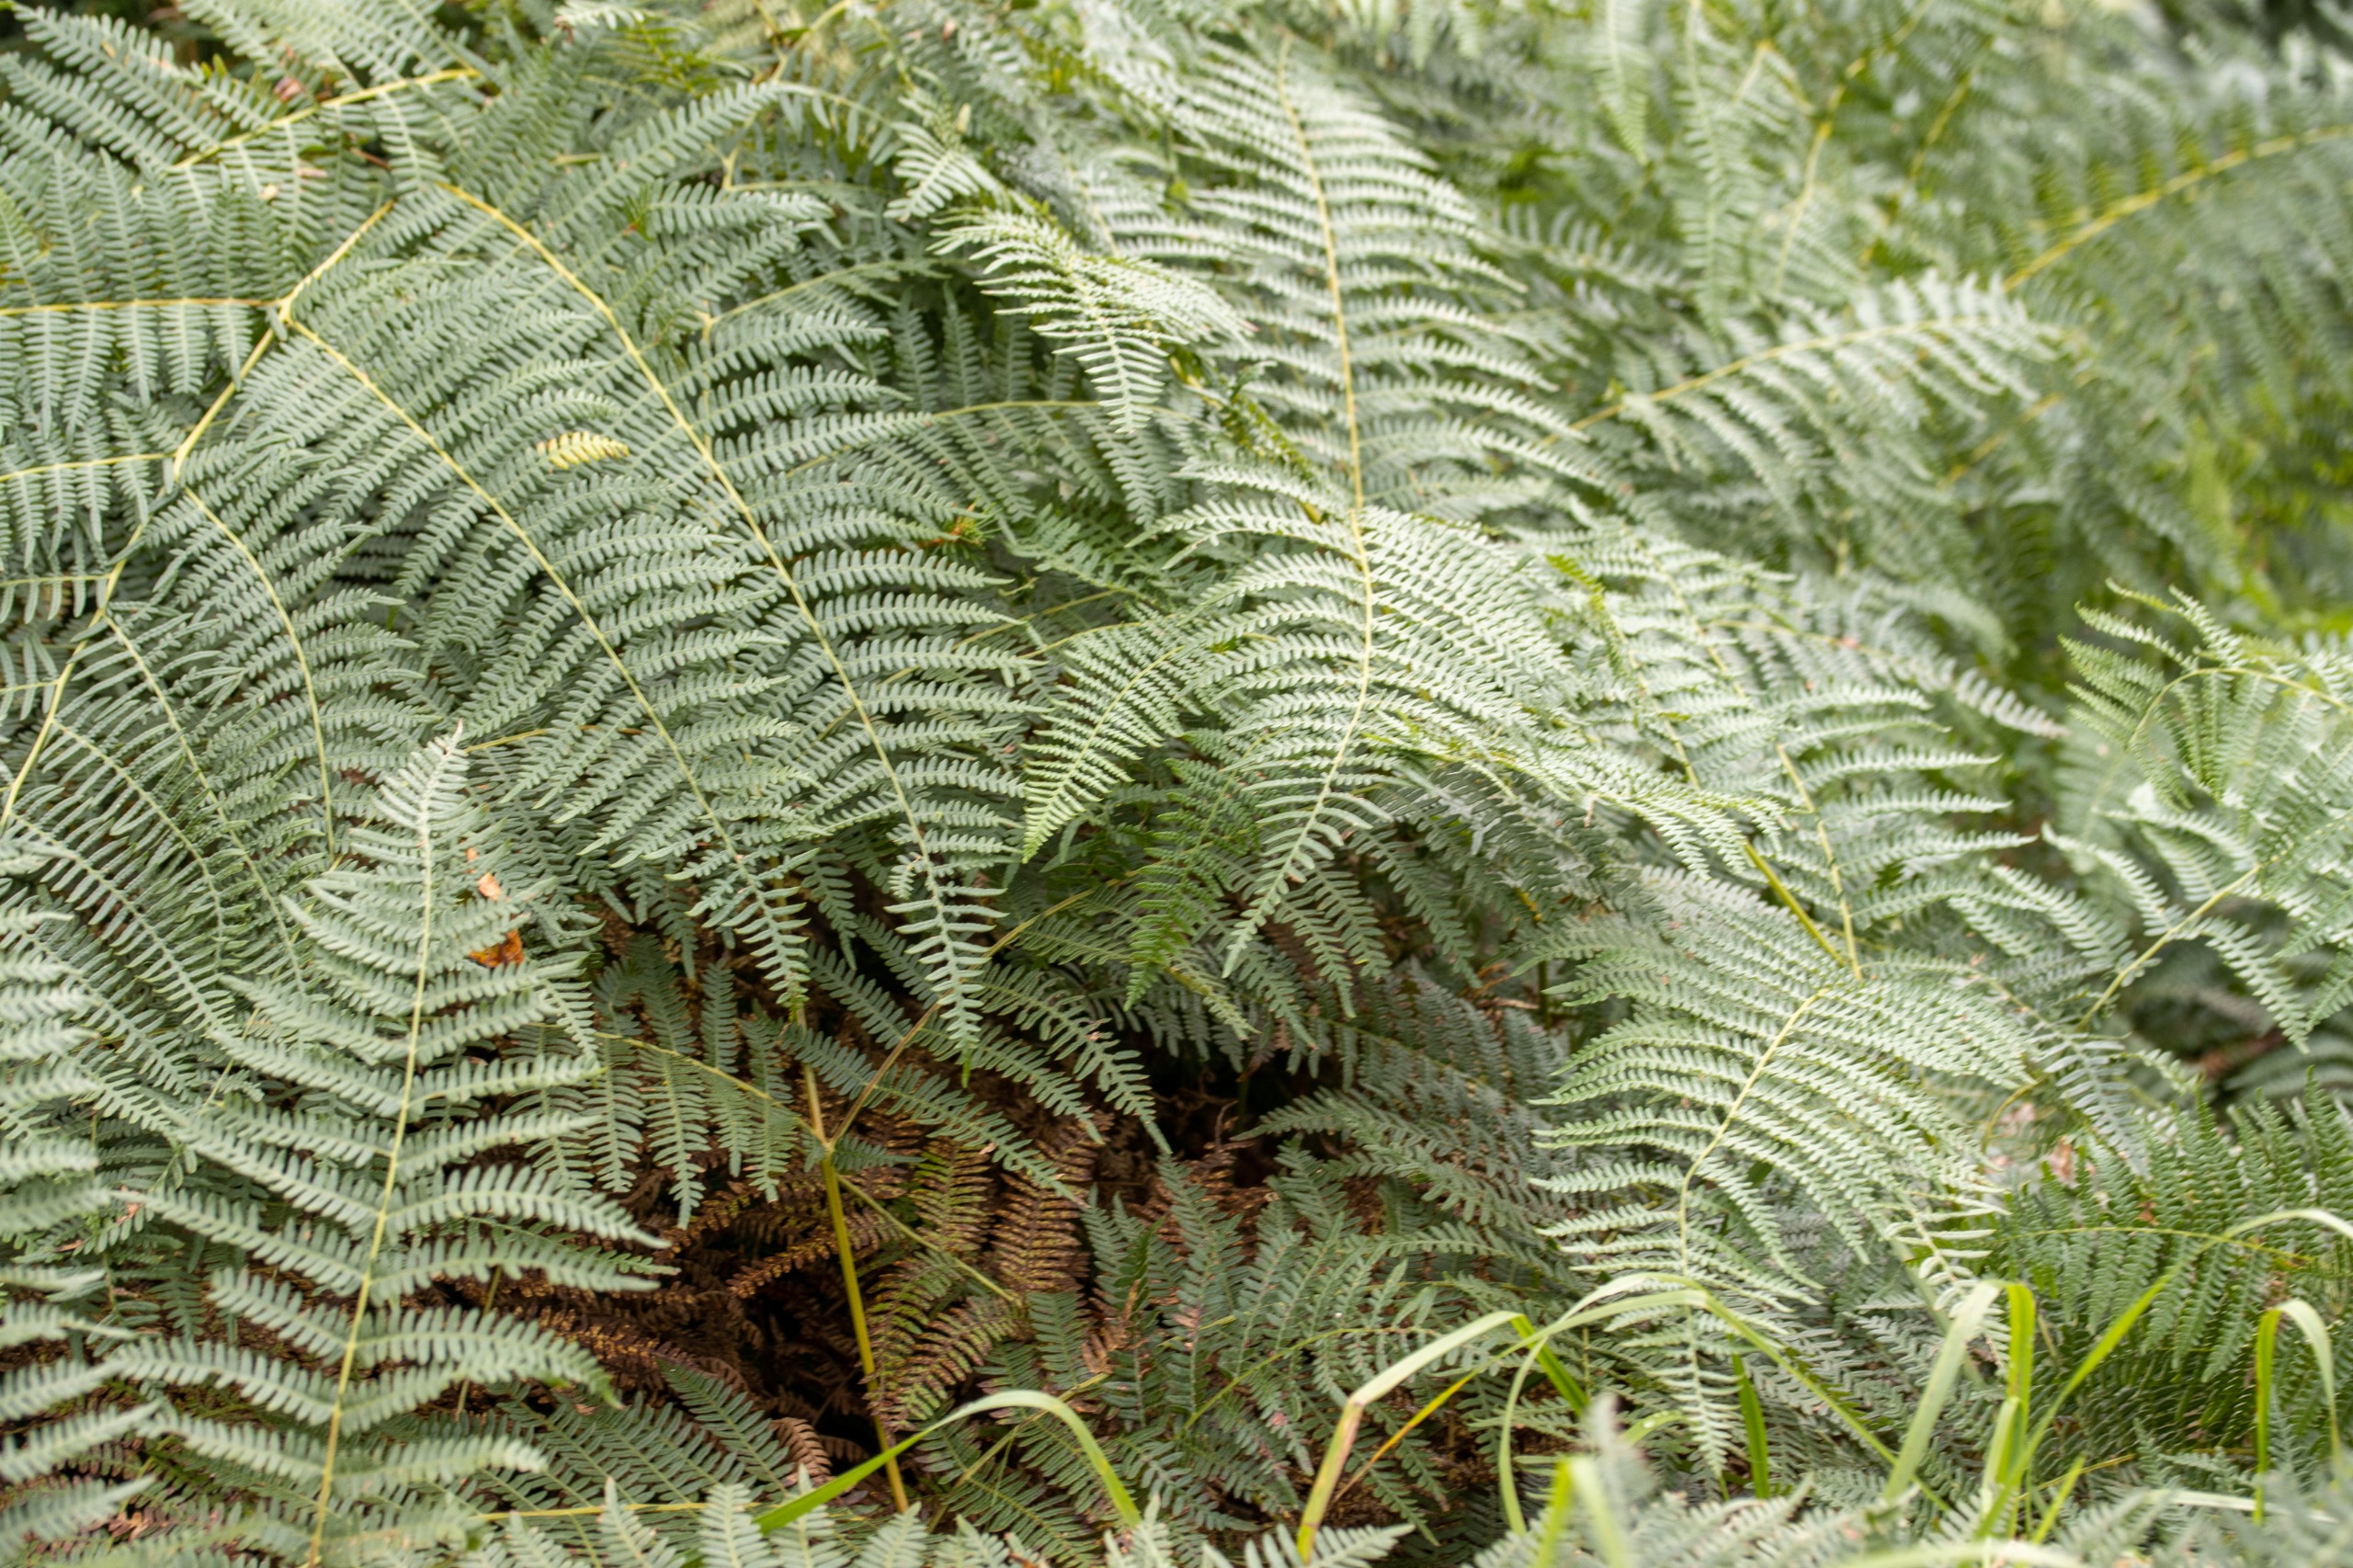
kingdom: Plantae
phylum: Tracheophyta
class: Polypodiopsida
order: Polypodiales
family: Dennstaedtiaceae
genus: Pteridium
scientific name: Pteridium aquilinum
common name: Ørnebregne
